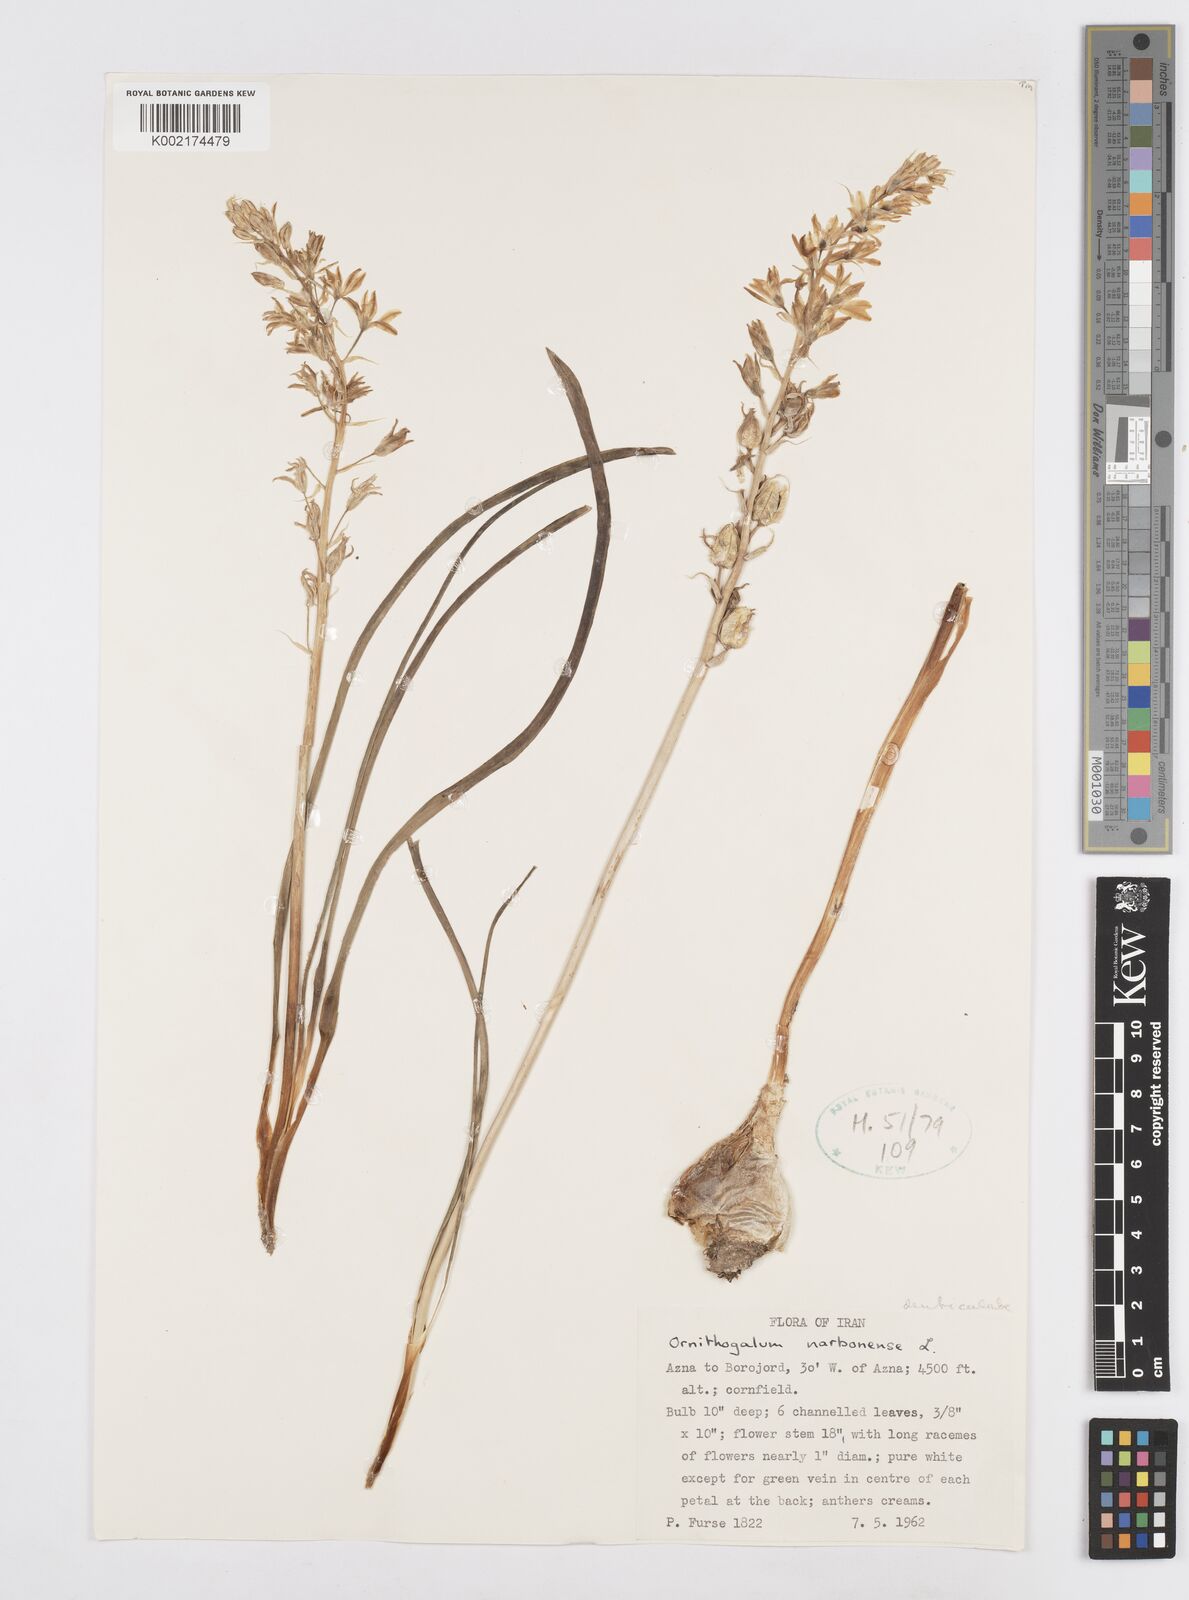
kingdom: Plantae
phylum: Tracheophyta
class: Liliopsida
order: Asparagales
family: Asparagaceae
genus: Ornithogalum
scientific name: Ornithogalum narbonense
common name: Bath-asparagus
